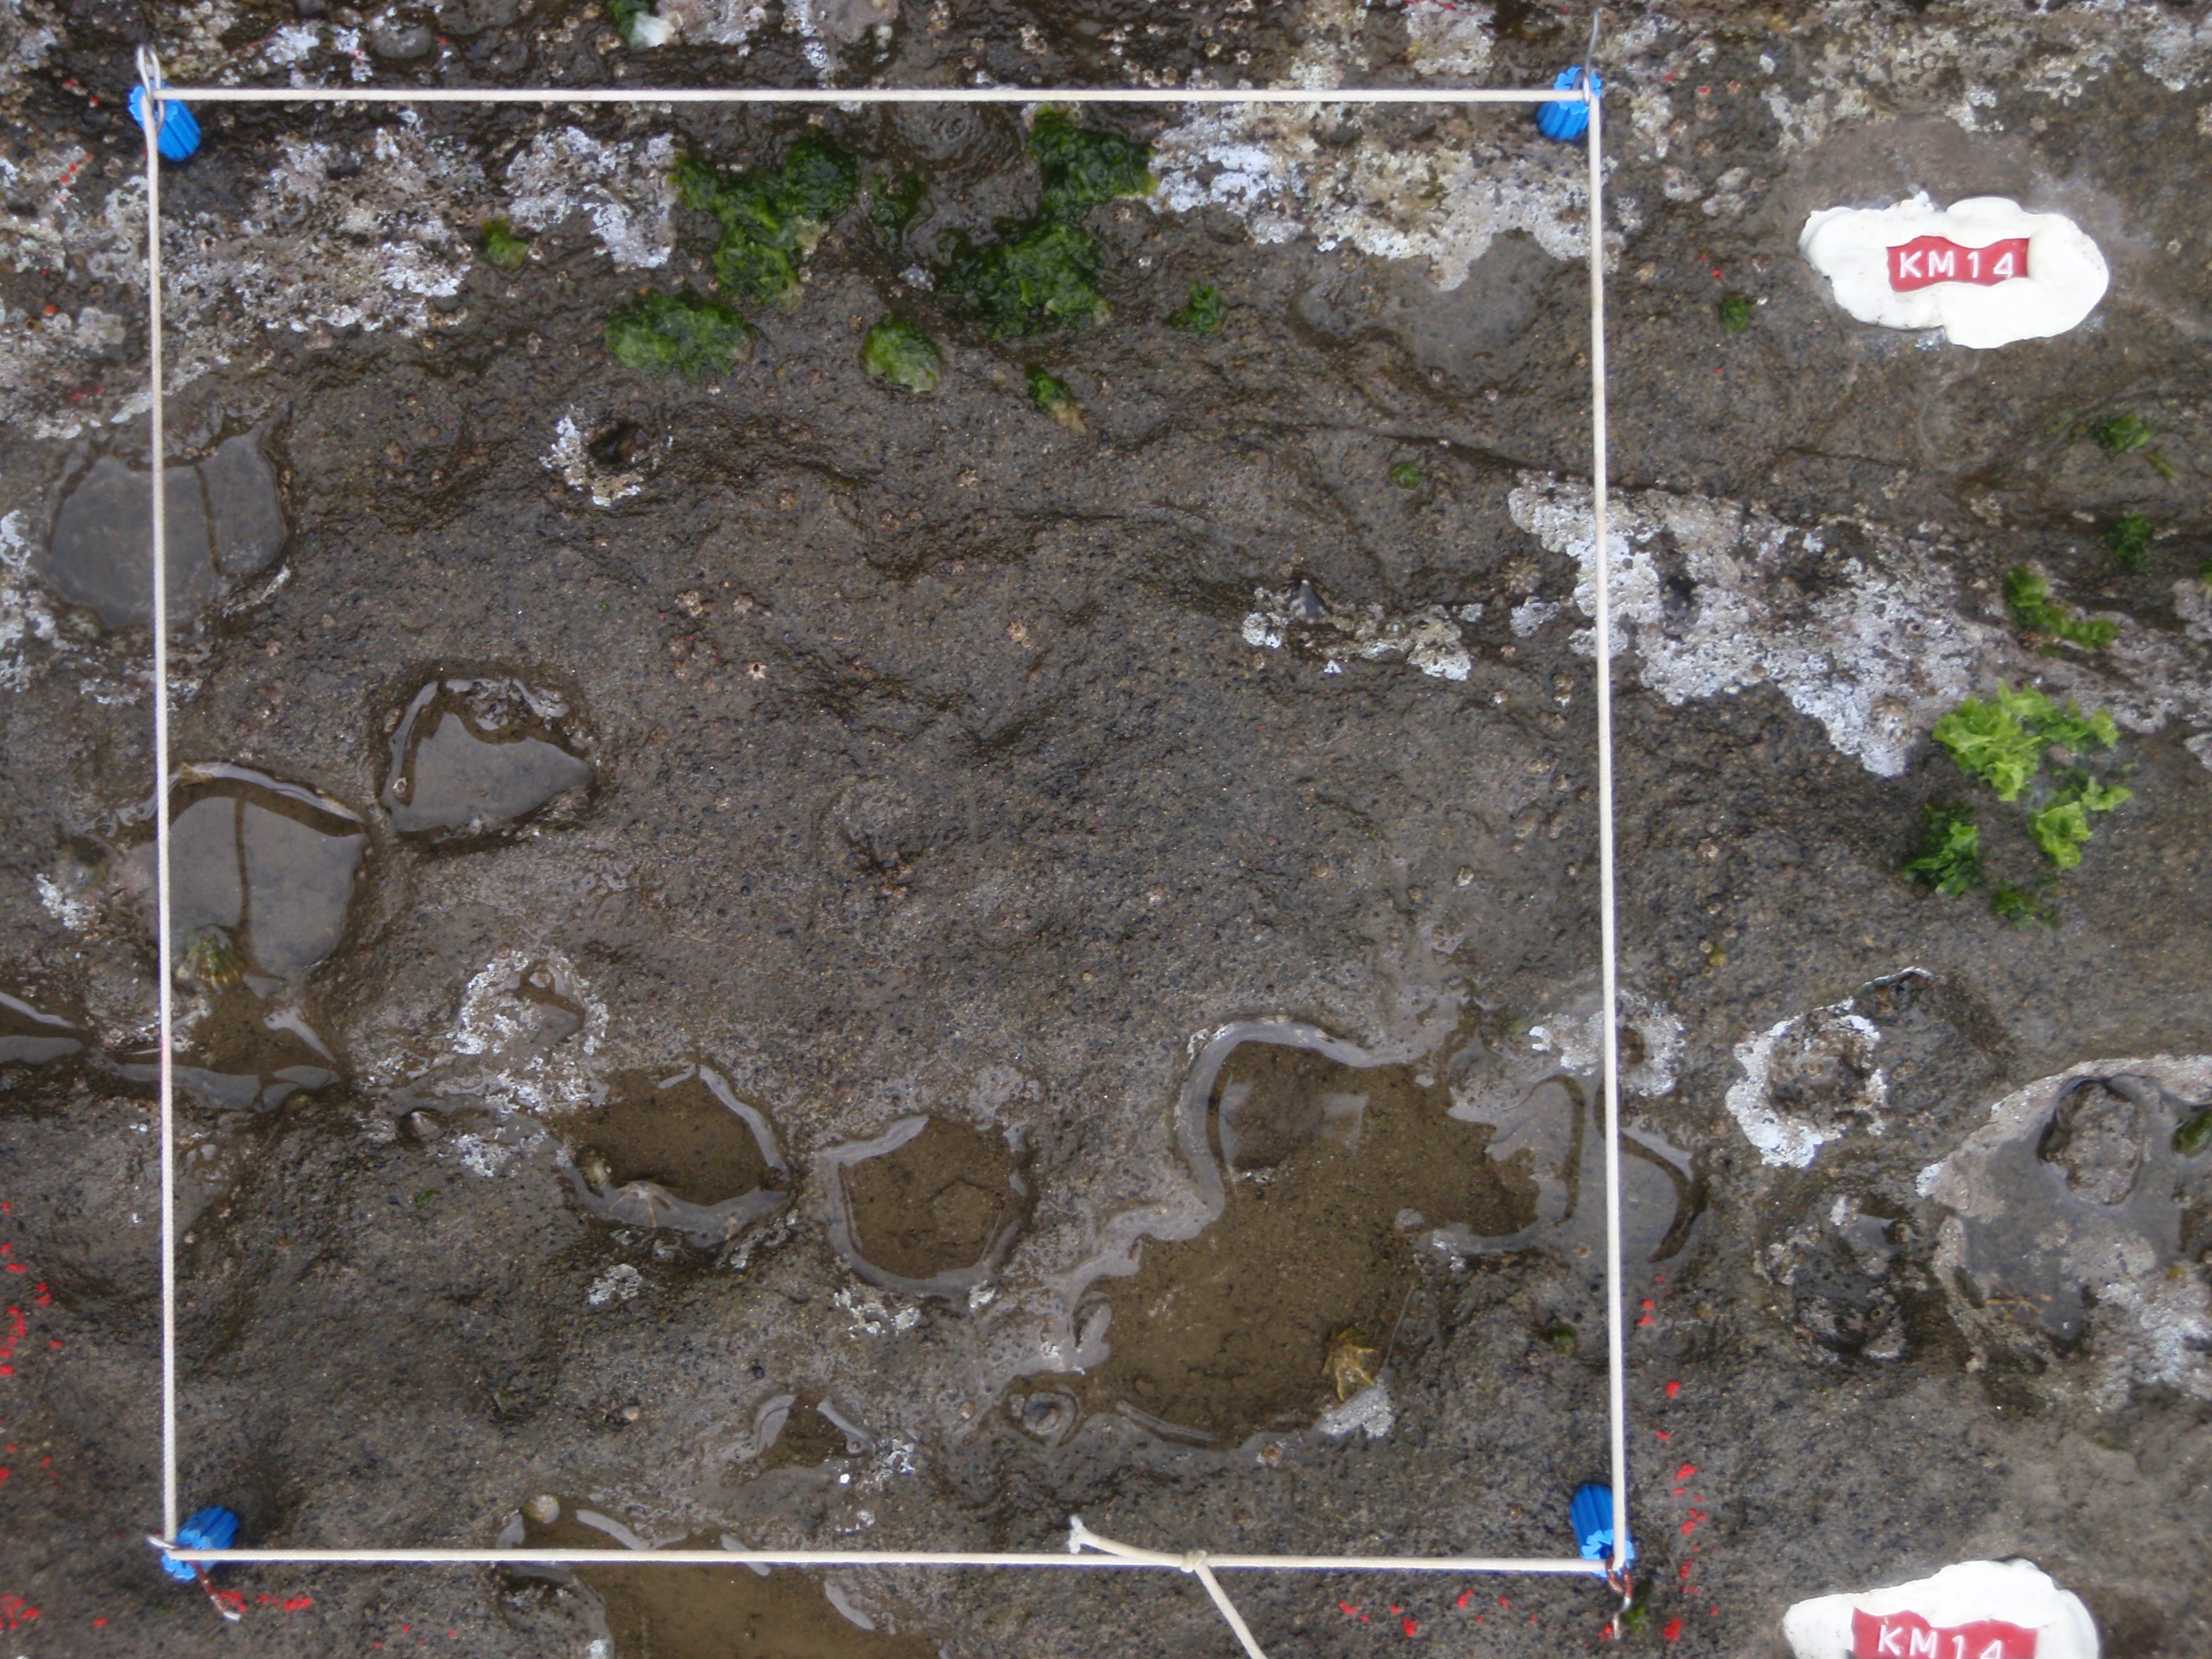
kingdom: Animalia
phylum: Arthropoda
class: Maxillopoda
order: Sessilia
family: Chthamalidae
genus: Chthamalus
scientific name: Chthamalus challengeri
